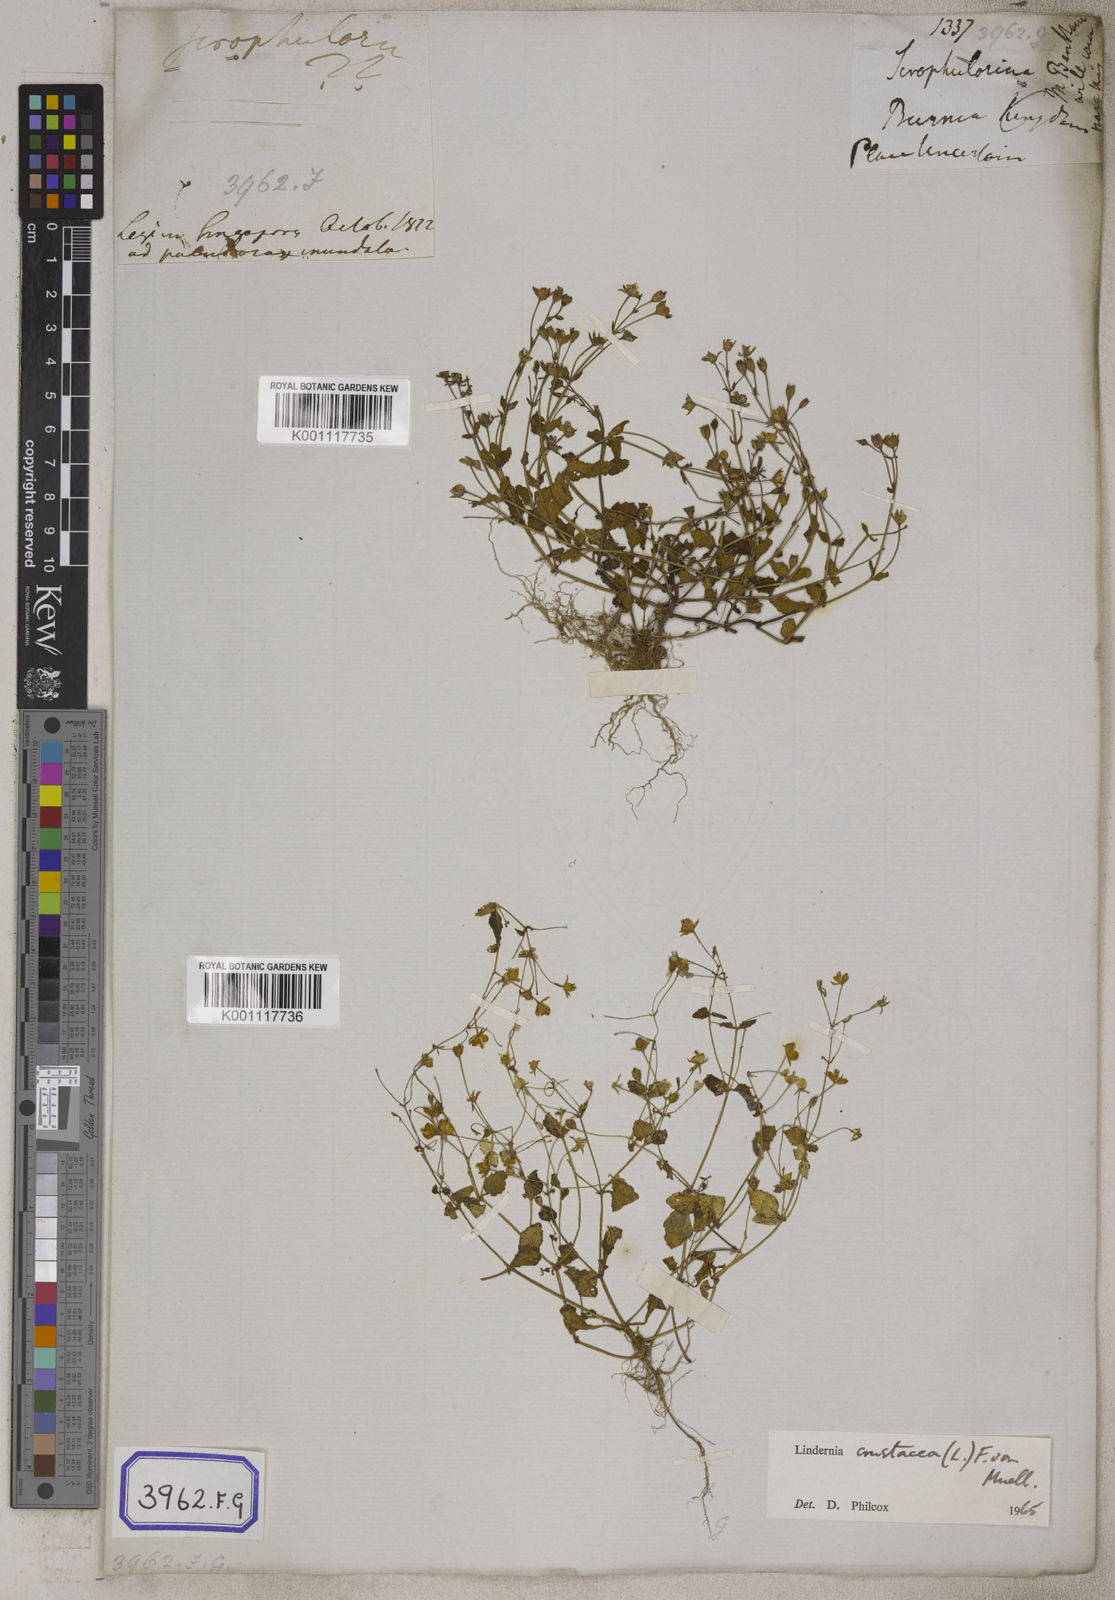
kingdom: Plantae
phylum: Tracheophyta
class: Magnoliopsida
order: Lamiales
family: Linderniaceae
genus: Torenia
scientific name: Torenia crustacea
